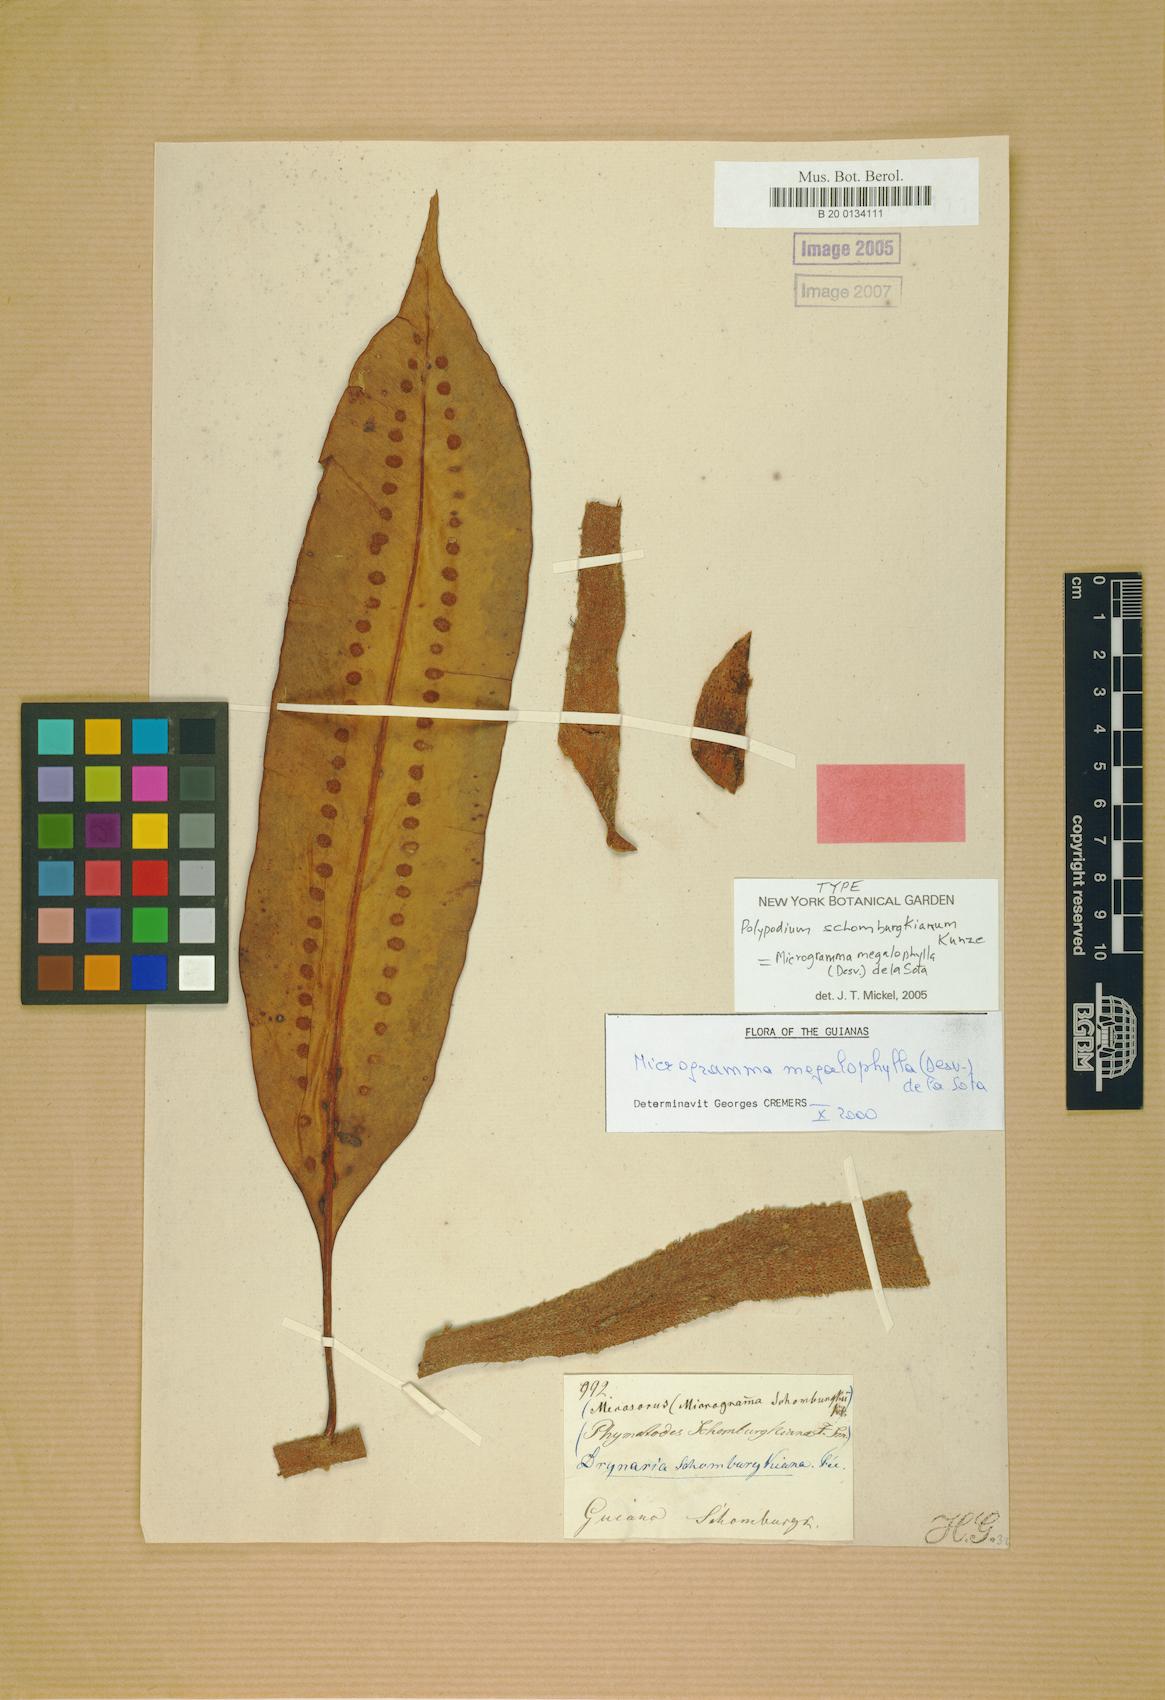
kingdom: Plantae
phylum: Tracheophyta
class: Polypodiopsida
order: Polypodiales
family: Polypodiaceae
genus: Microgramma
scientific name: Microgramma megalophylla
